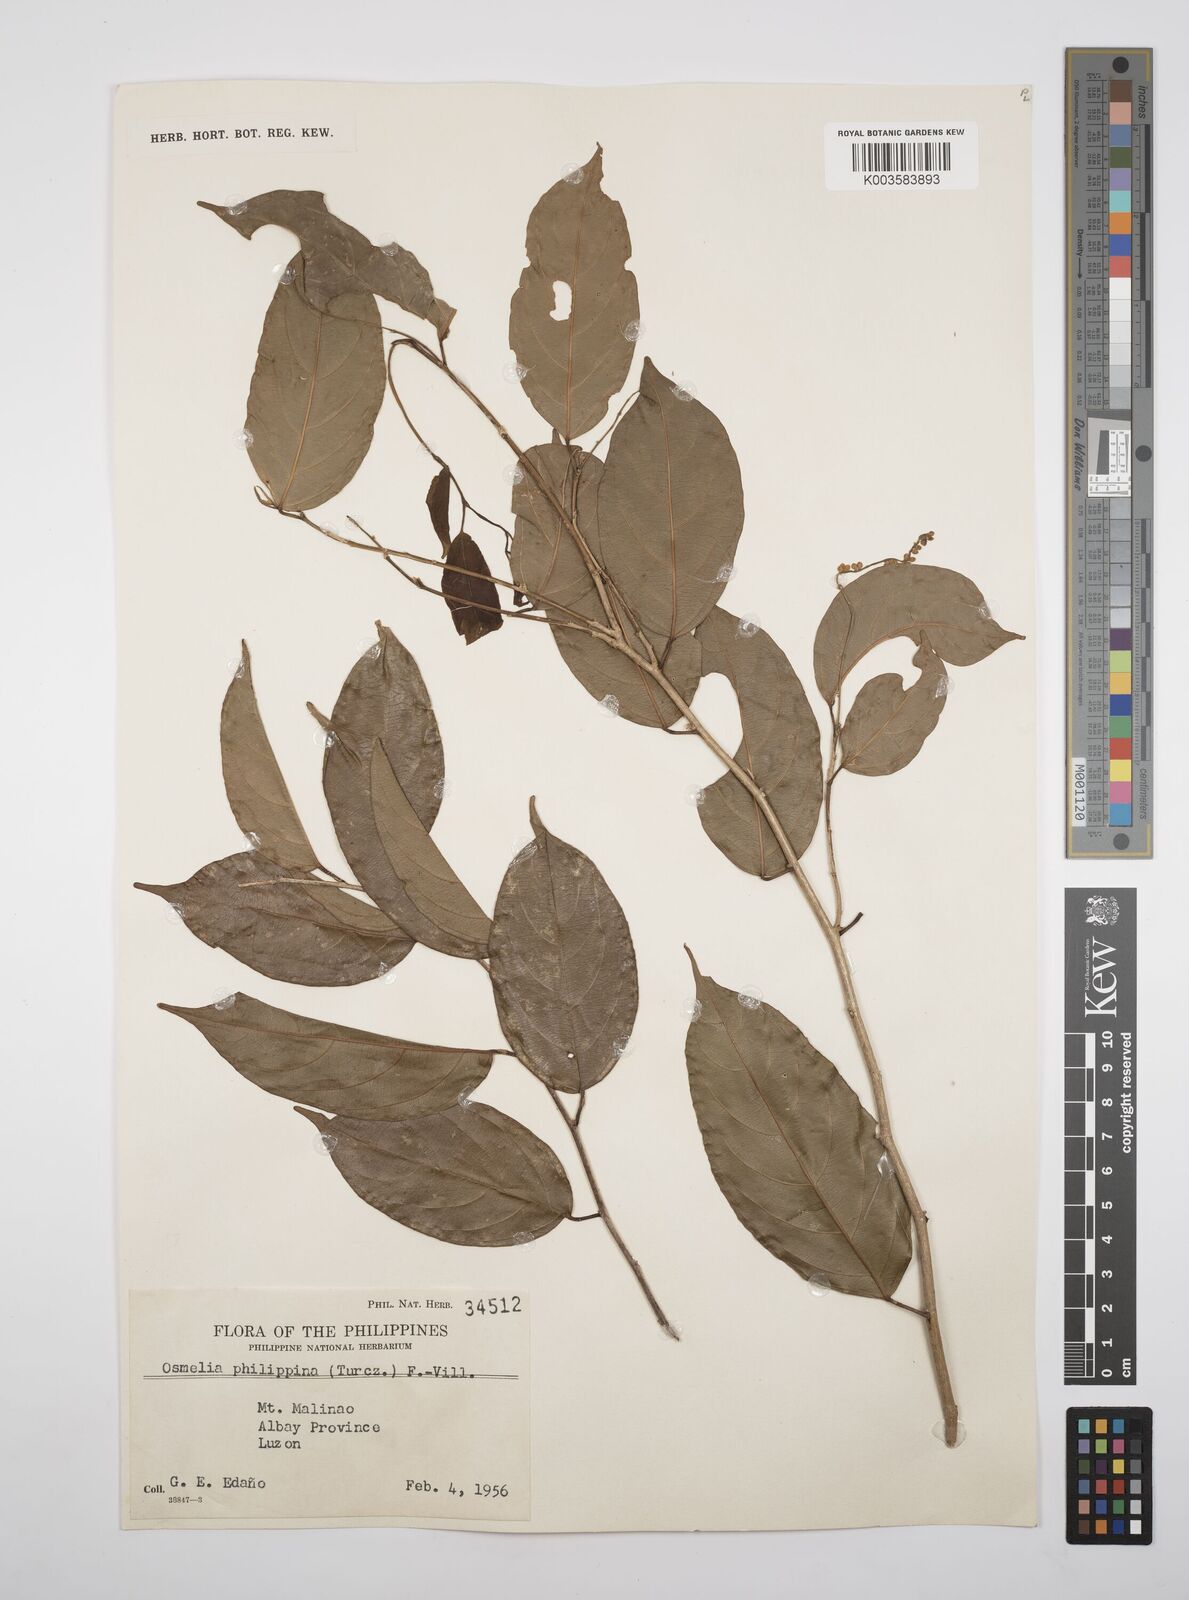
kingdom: Plantae
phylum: Tracheophyta
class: Magnoliopsida
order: Malpighiales
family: Salicaceae
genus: Osmelia
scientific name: Osmelia philippina
